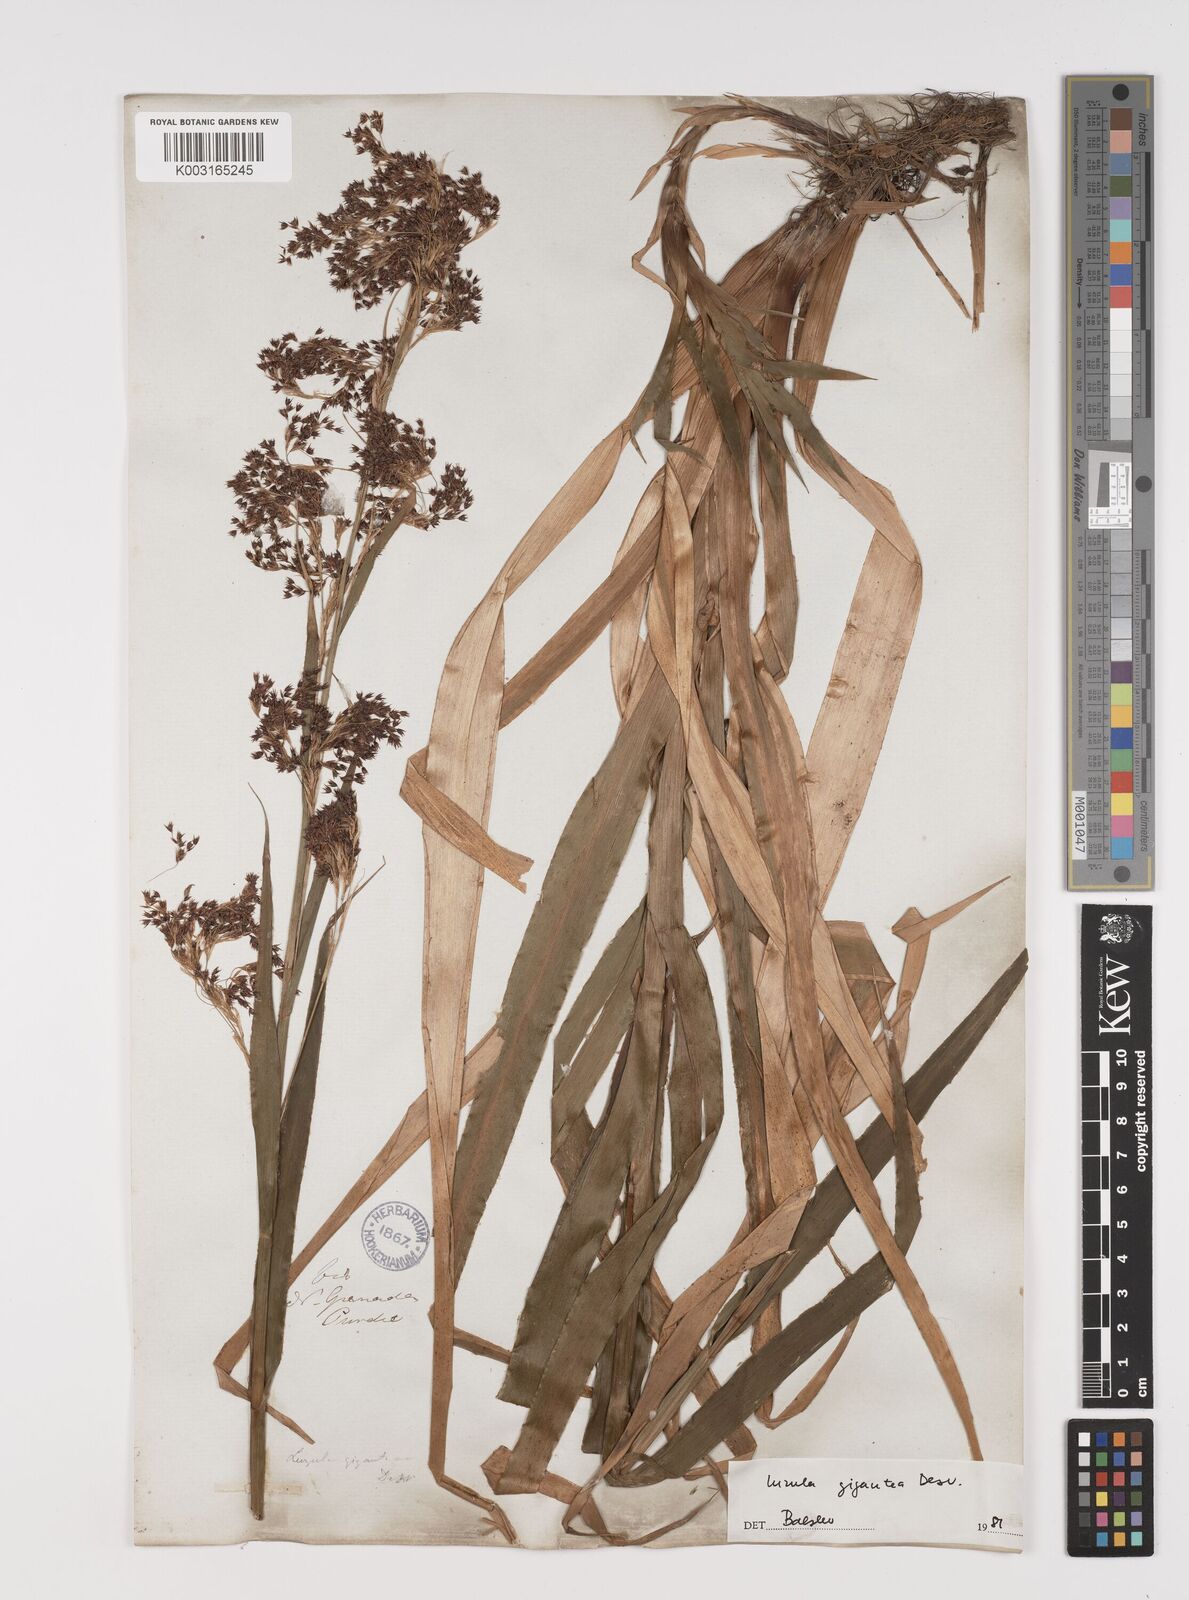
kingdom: Plantae
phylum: Tracheophyta
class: Liliopsida
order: Poales
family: Juncaceae
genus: Luzula
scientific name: Luzula gigantea
